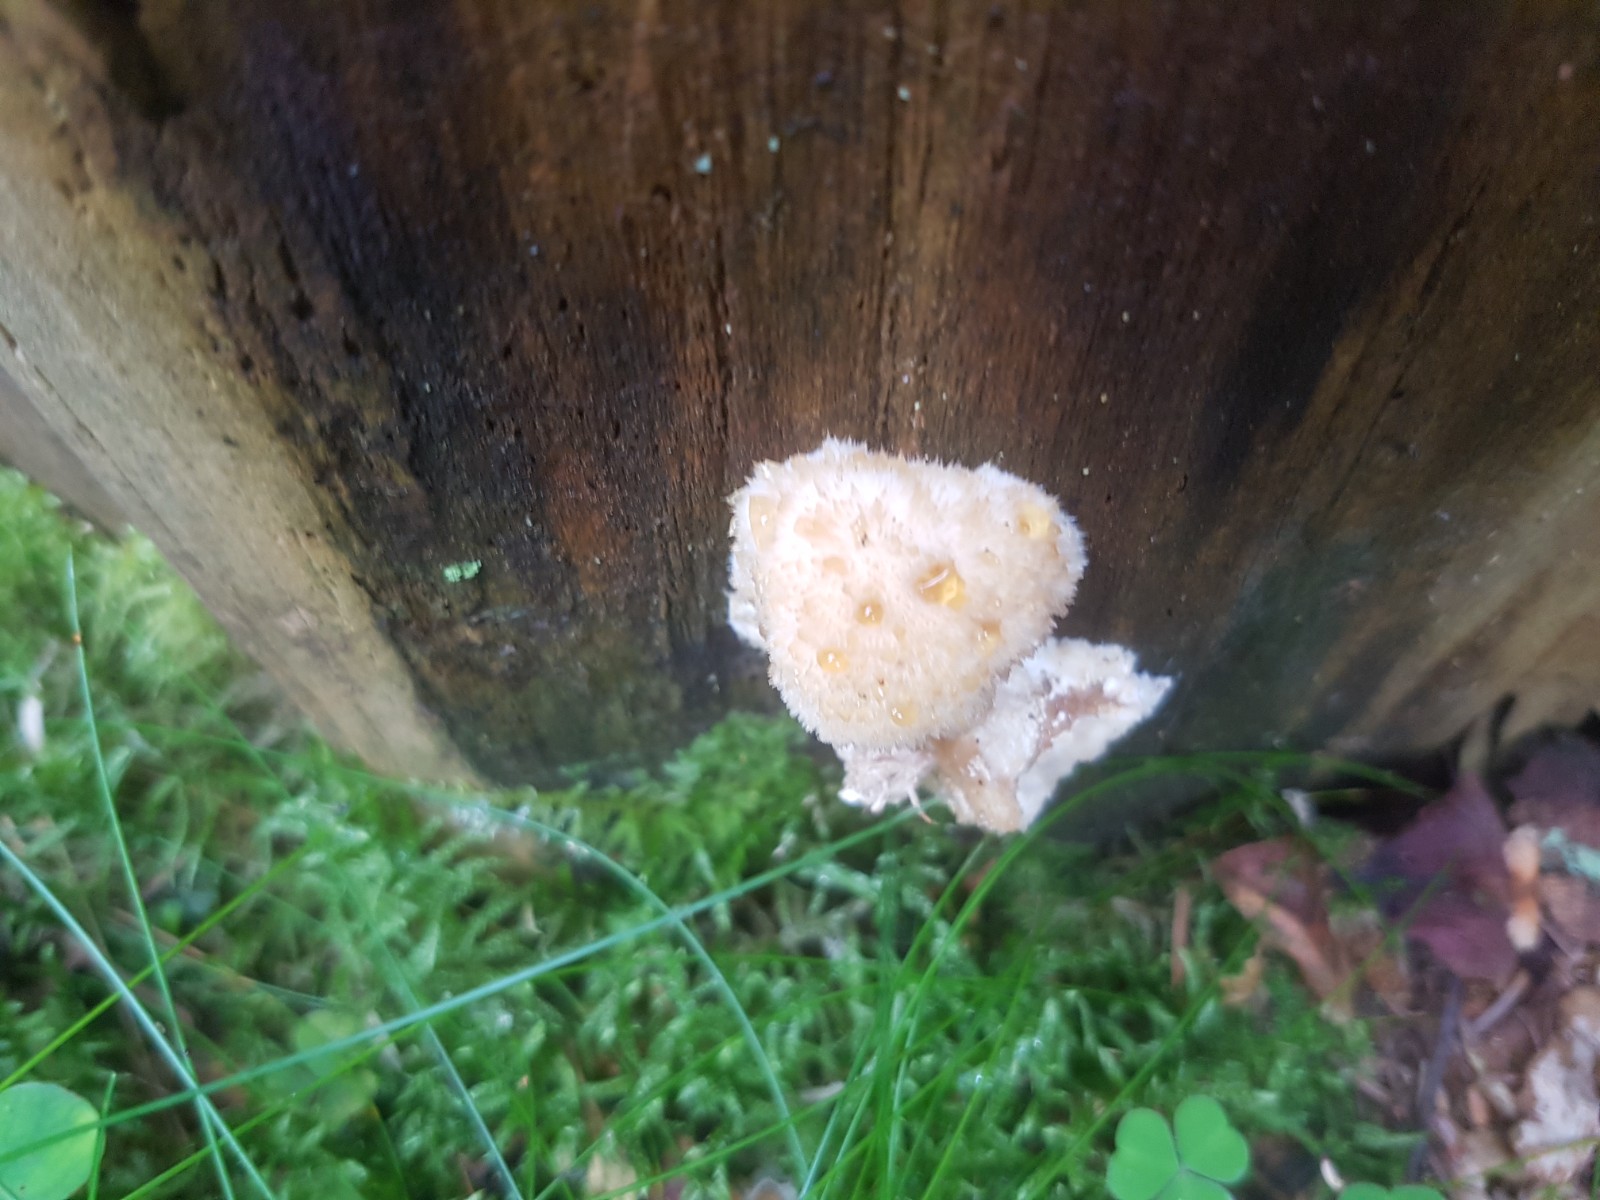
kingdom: Fungi
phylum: Basidiomycota
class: Agaricomycetes
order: Polyporales
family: Dacryobolaceae
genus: Postia
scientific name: Postia ptychogaster
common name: støvende kødporesvamp
